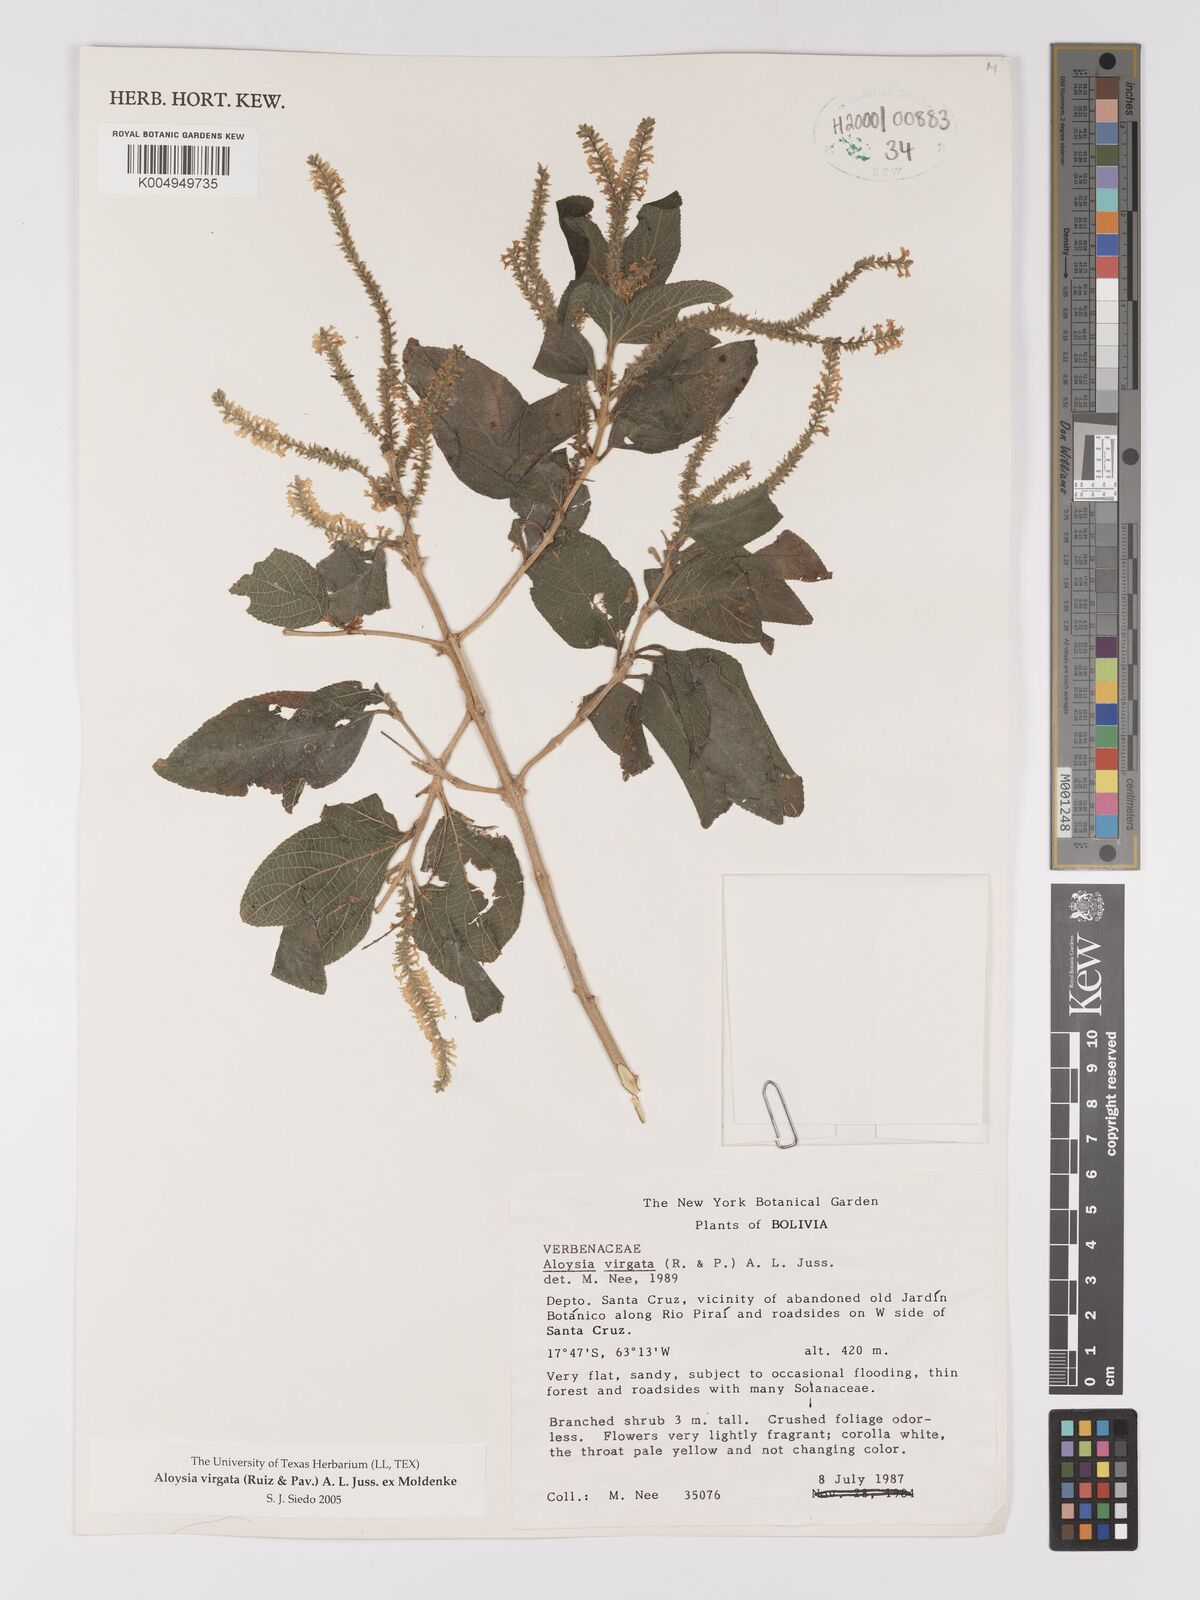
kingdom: Plantae
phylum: Tracheophyta
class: Magnoliopsida
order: Lamiales
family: Verbenaceae
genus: Aloysia
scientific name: Aloysia virgata
